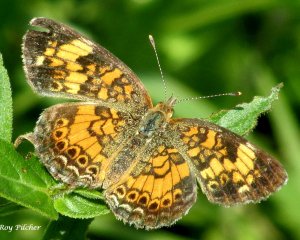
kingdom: Animalia
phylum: Arthropoda
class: Insecta
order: Lepidoptera
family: Nymphalidae
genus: Phyciodes
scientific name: Phyciodes tharos
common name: Pearl Crescent
